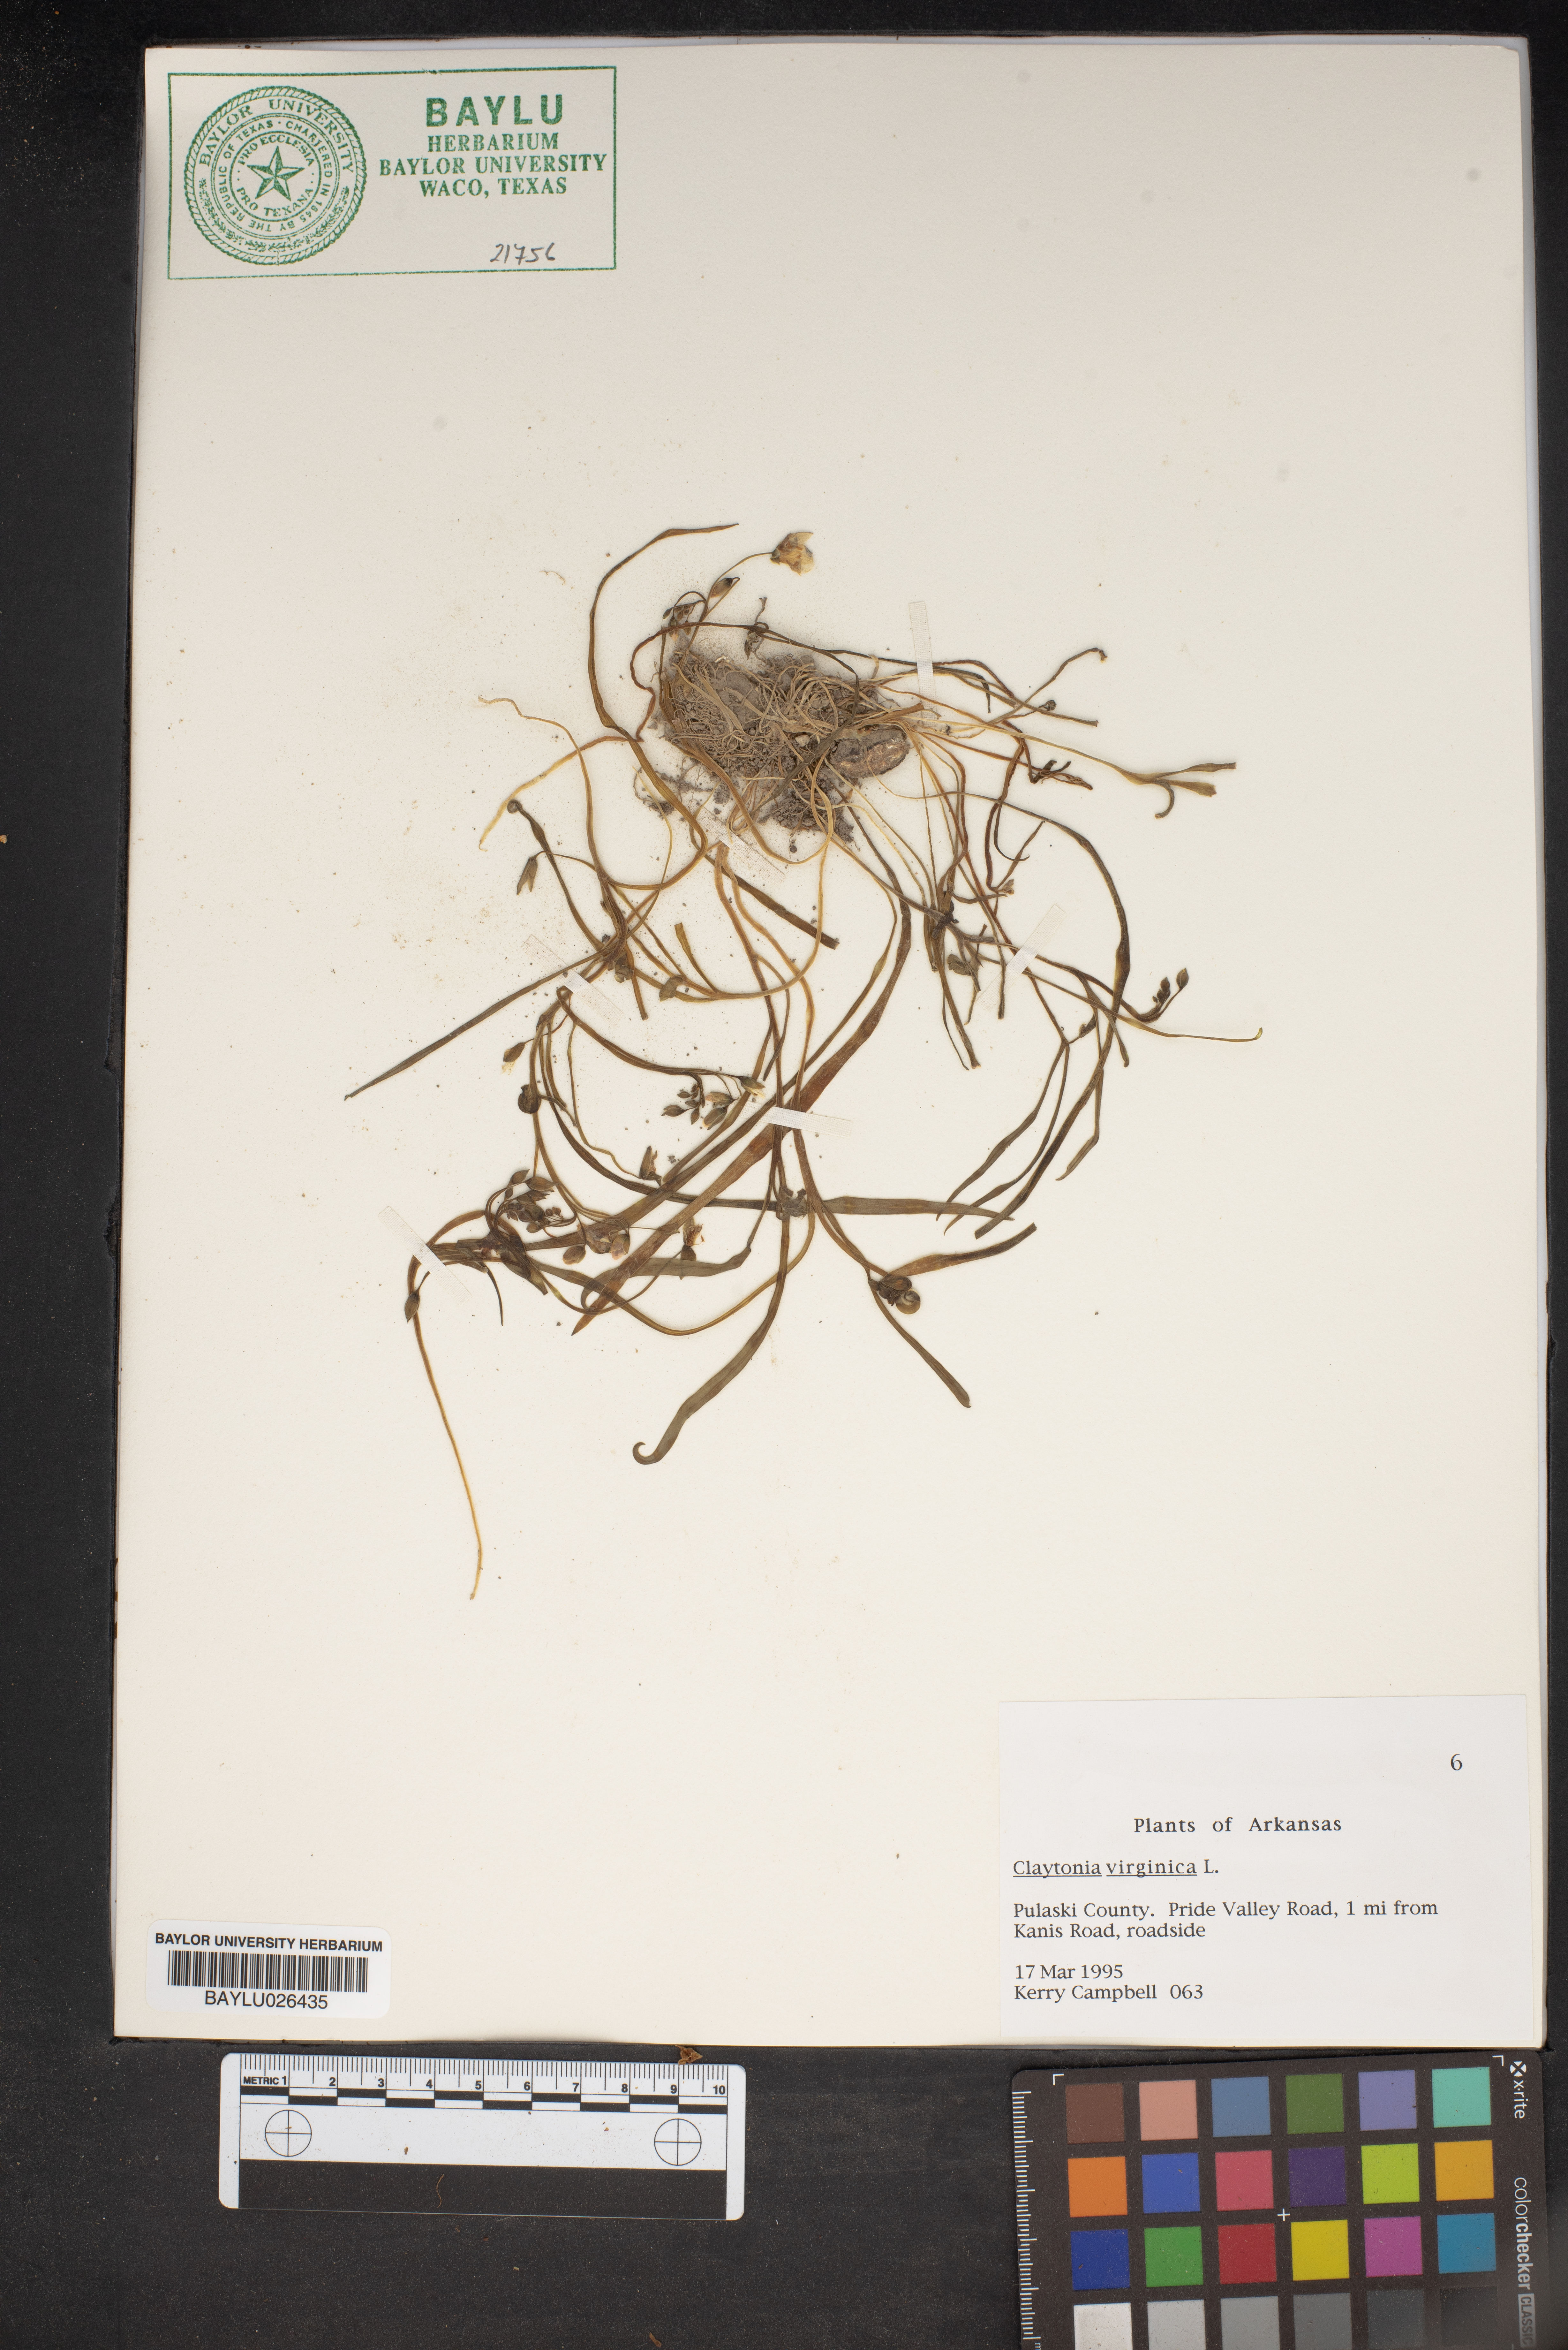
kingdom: Plantae
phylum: Tracheophyta
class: Magnoliopsida
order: Caryophyllales
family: Montiaceae
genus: Claytonia
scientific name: Claytonia virginica
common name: Virginia springbeauty
